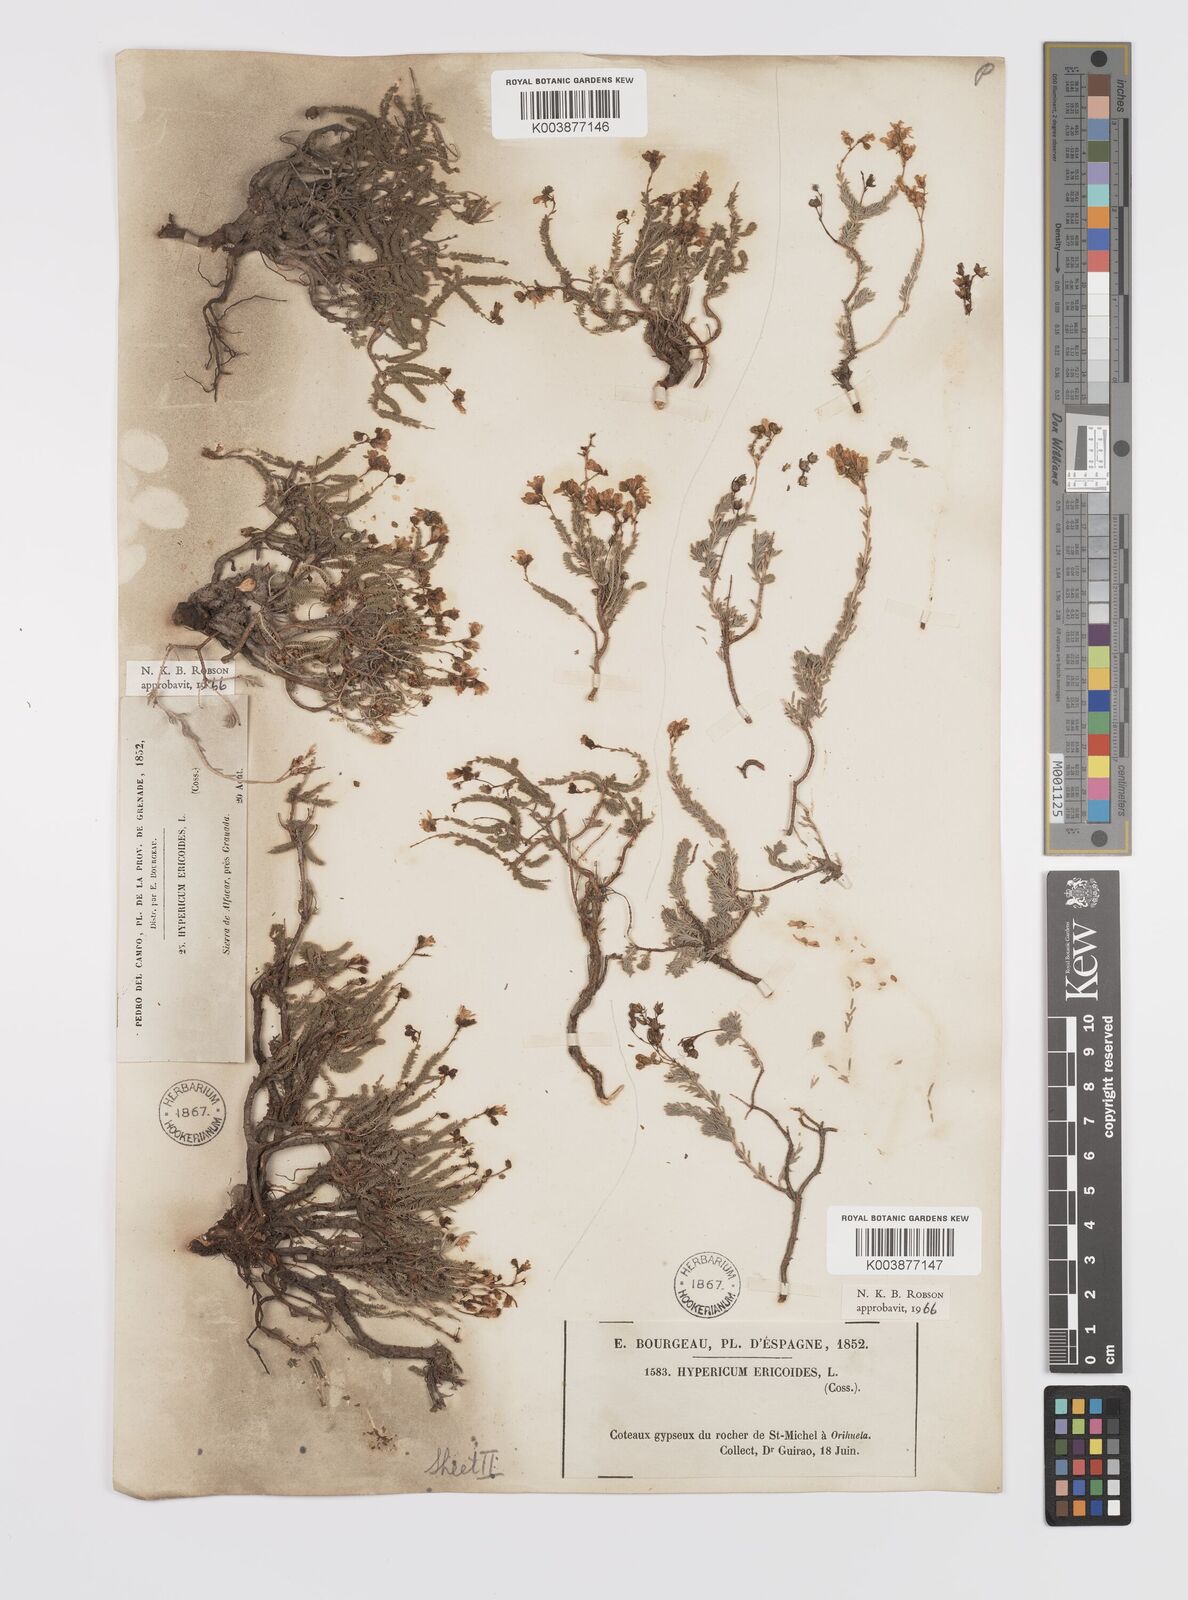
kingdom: Plantae
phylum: Tracheophyta
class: Magnoliopsida
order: Malpighiales
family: Hypericaceae
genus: Hypericum
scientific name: Hypericum ericoides
